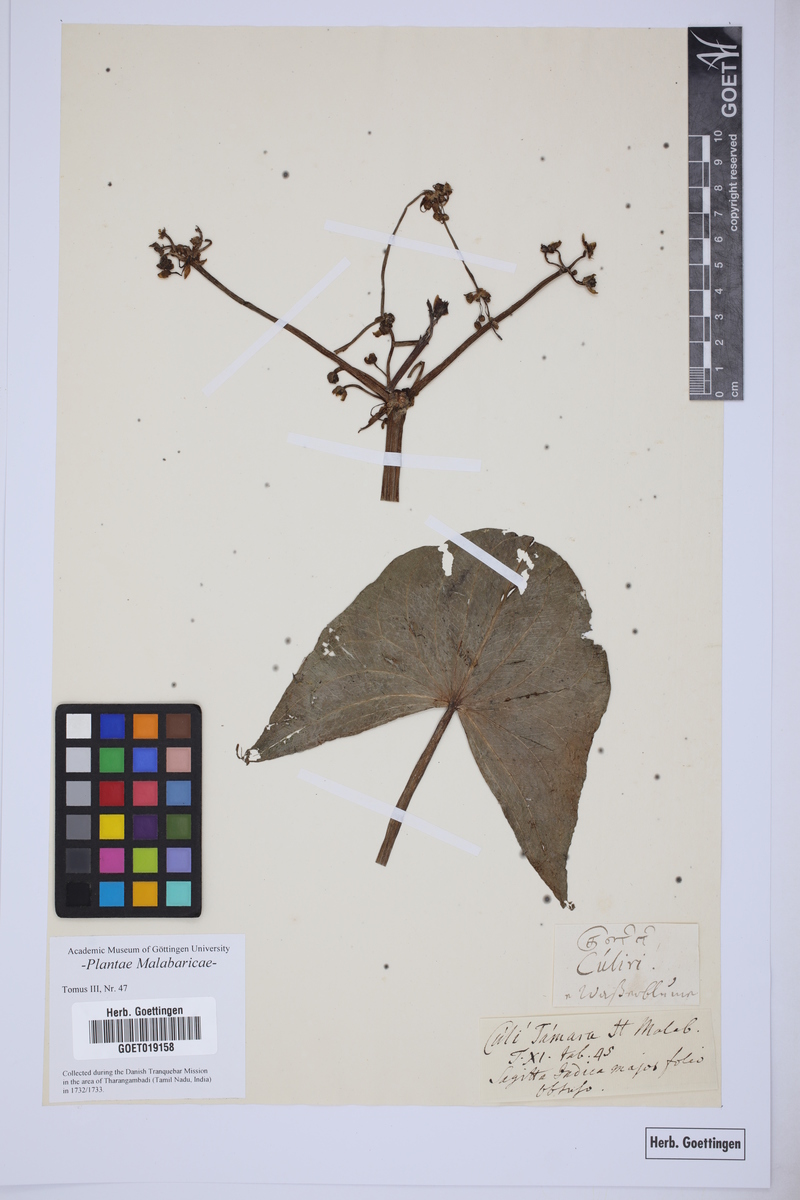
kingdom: Plantae
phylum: Tracheophyta
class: Liliopsida
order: Alismatales
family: Alismataceae
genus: Limnophyton
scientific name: Limnophyton obtusifolium
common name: Arrow head
